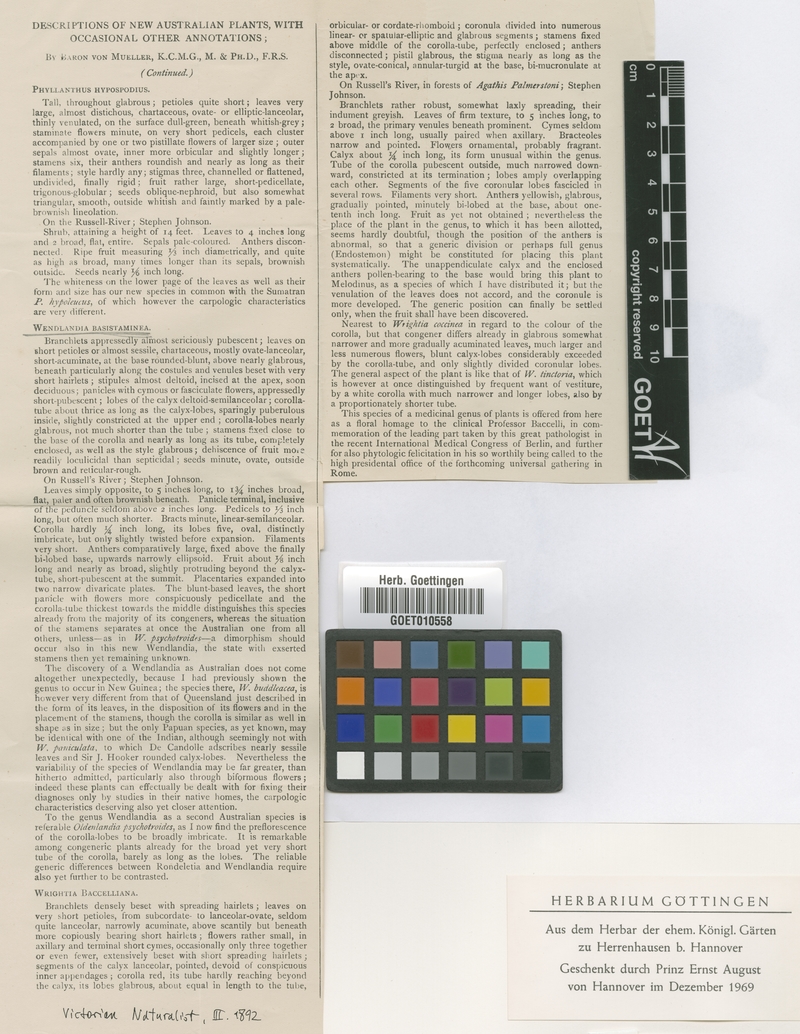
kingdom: Plantae
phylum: Tracheophyta
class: Magnoliopsida
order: Gentianales
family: Rubiaceae
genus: Wendlandia
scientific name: Wendlandia basistaminea
